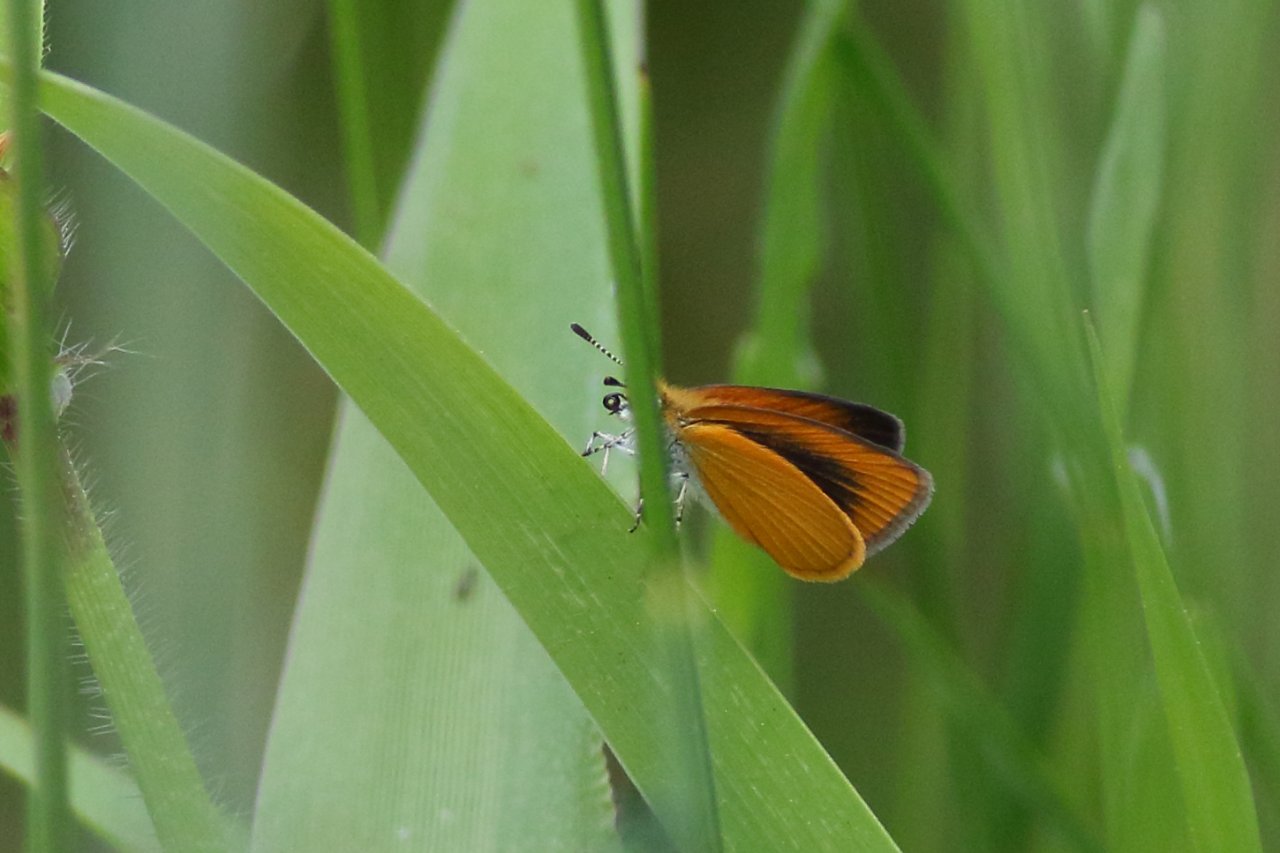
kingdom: Animalia
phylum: Arthropoda
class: Insecta
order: Lepidoptera
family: Hesperiidae
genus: Ancyloxypha
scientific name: Ancyloxypha numitor
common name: Least Skipper
